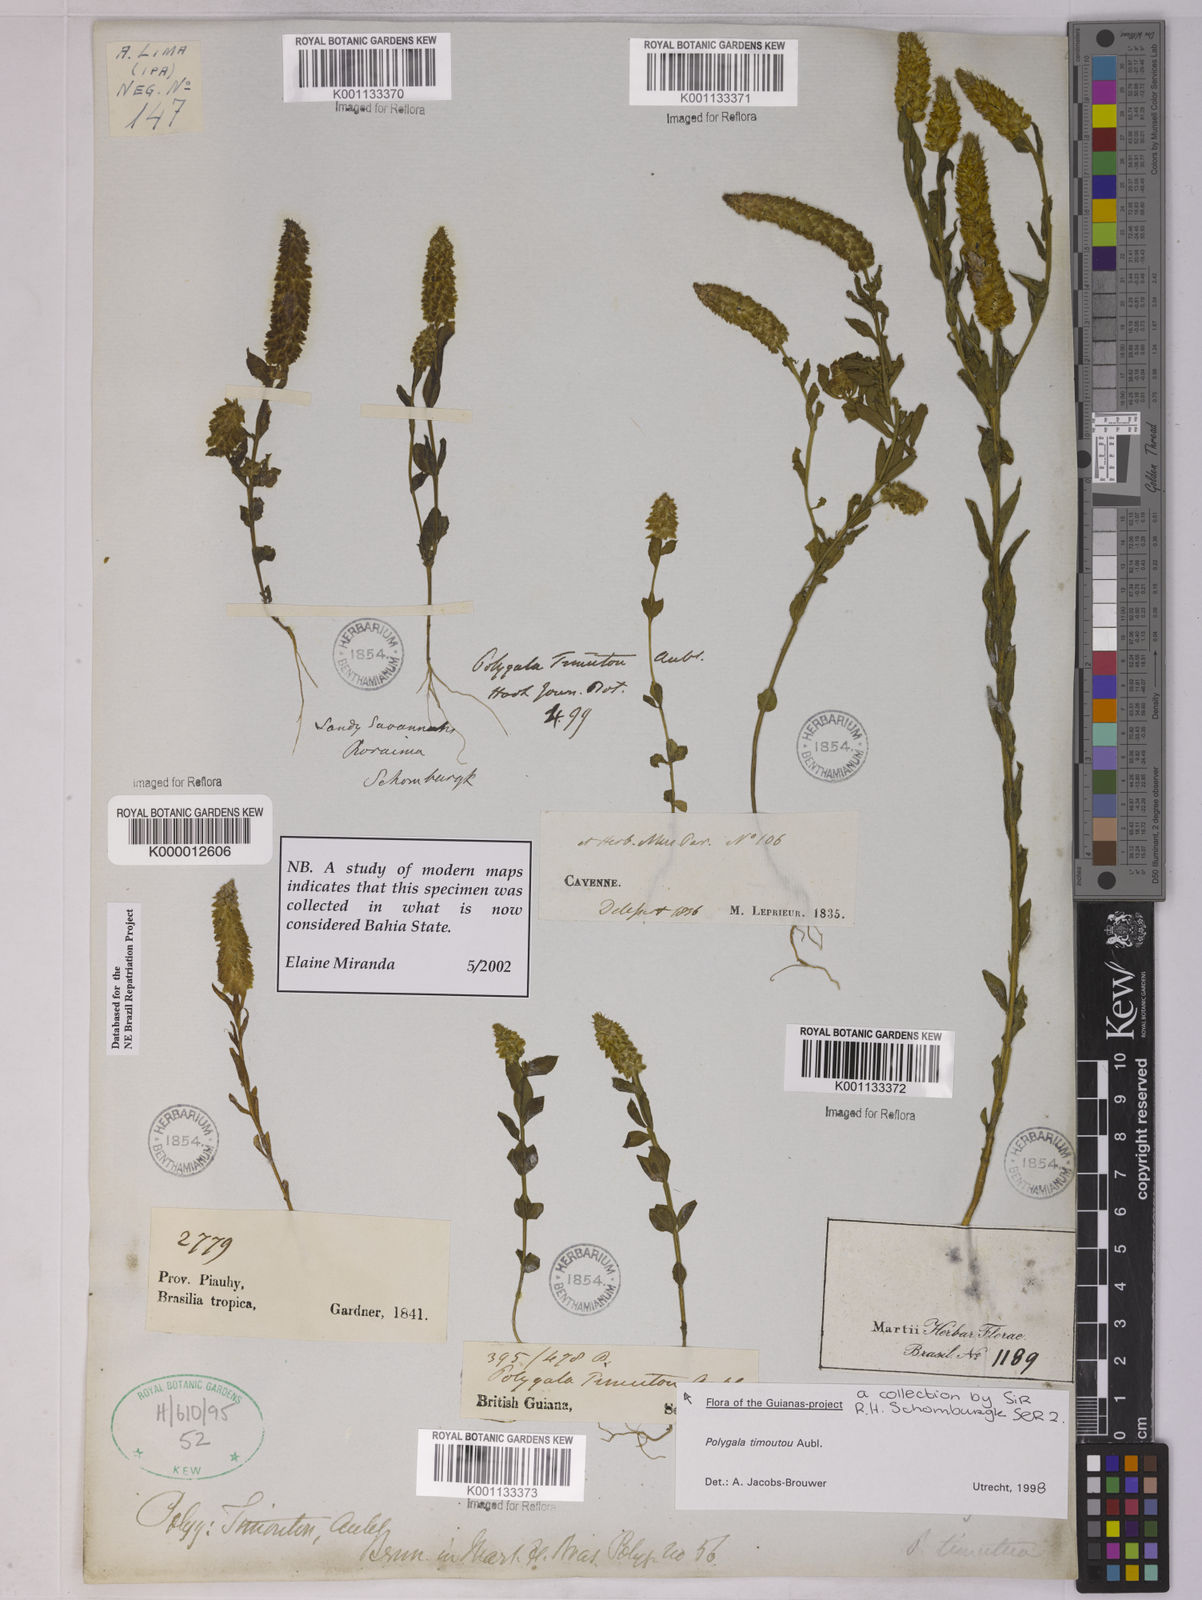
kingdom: Plantae
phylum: Tracheophyta
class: Magnoliopsida
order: Fabales
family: Polygalaceae
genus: Polygala
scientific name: Polygala timoutou
